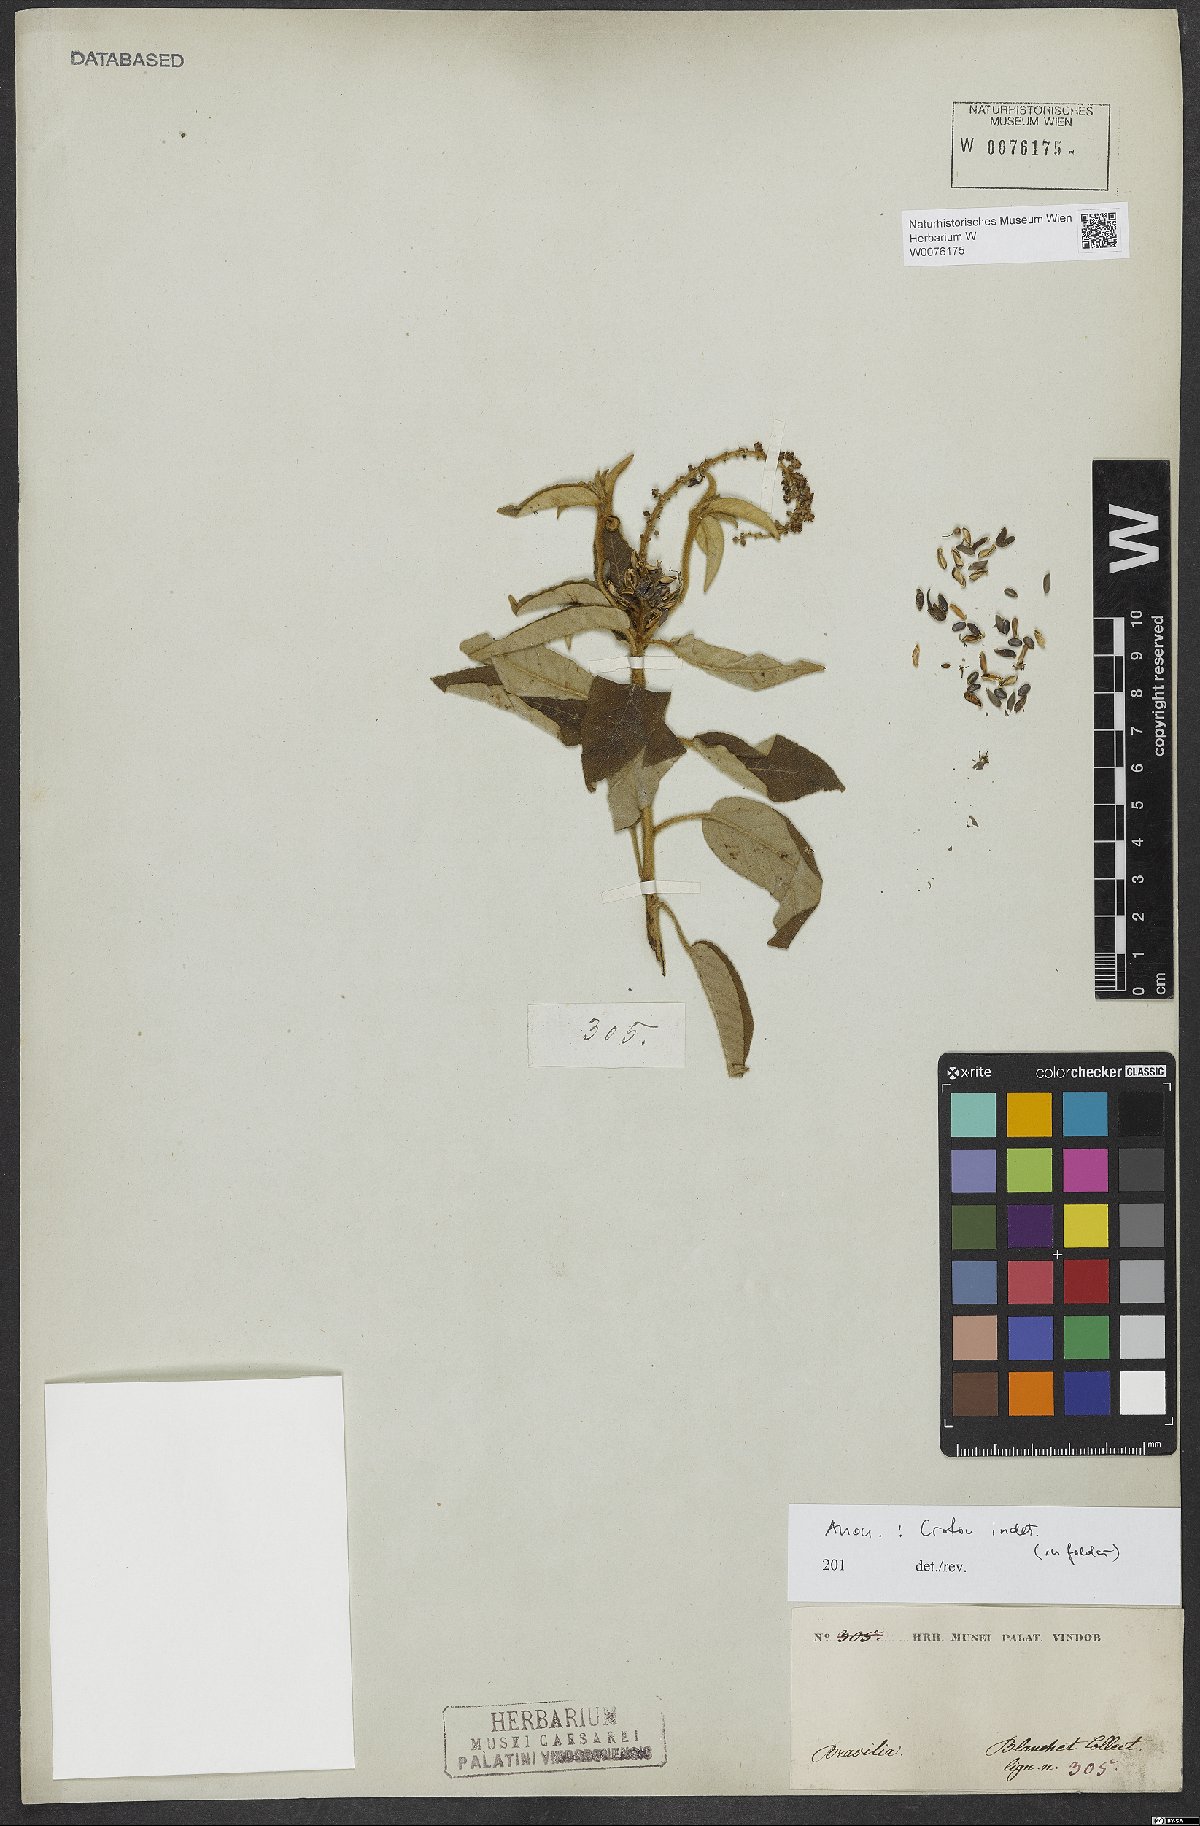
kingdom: Plantae
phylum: Tracheophyta
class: Magnoliopsida
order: Malpighiales
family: Euphorbiaceae
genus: Croton
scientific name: Croton
